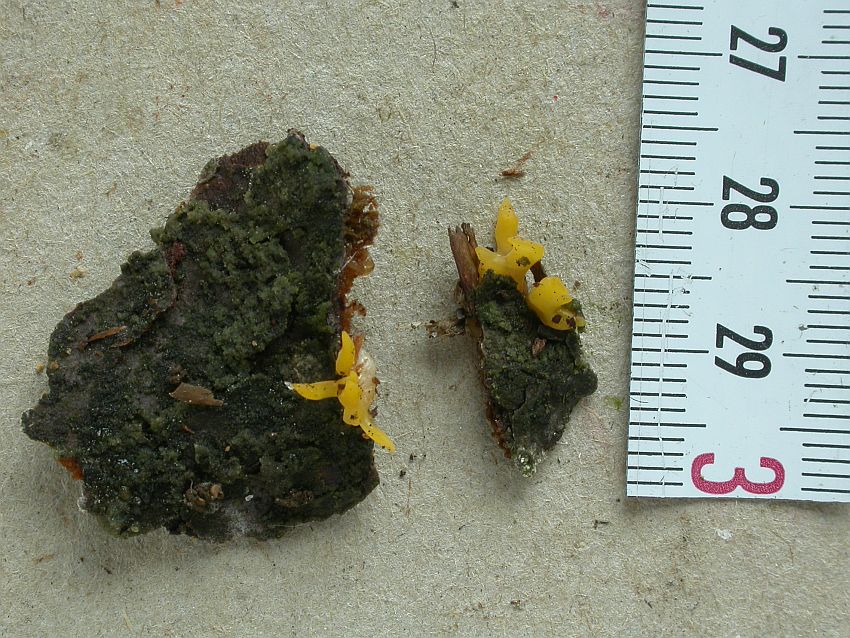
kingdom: Fungi
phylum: Basidiomycota
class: Dacrymycetes
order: Dacrymycetales
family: Dacrymycetaceae
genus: Calocera
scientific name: Calocera
